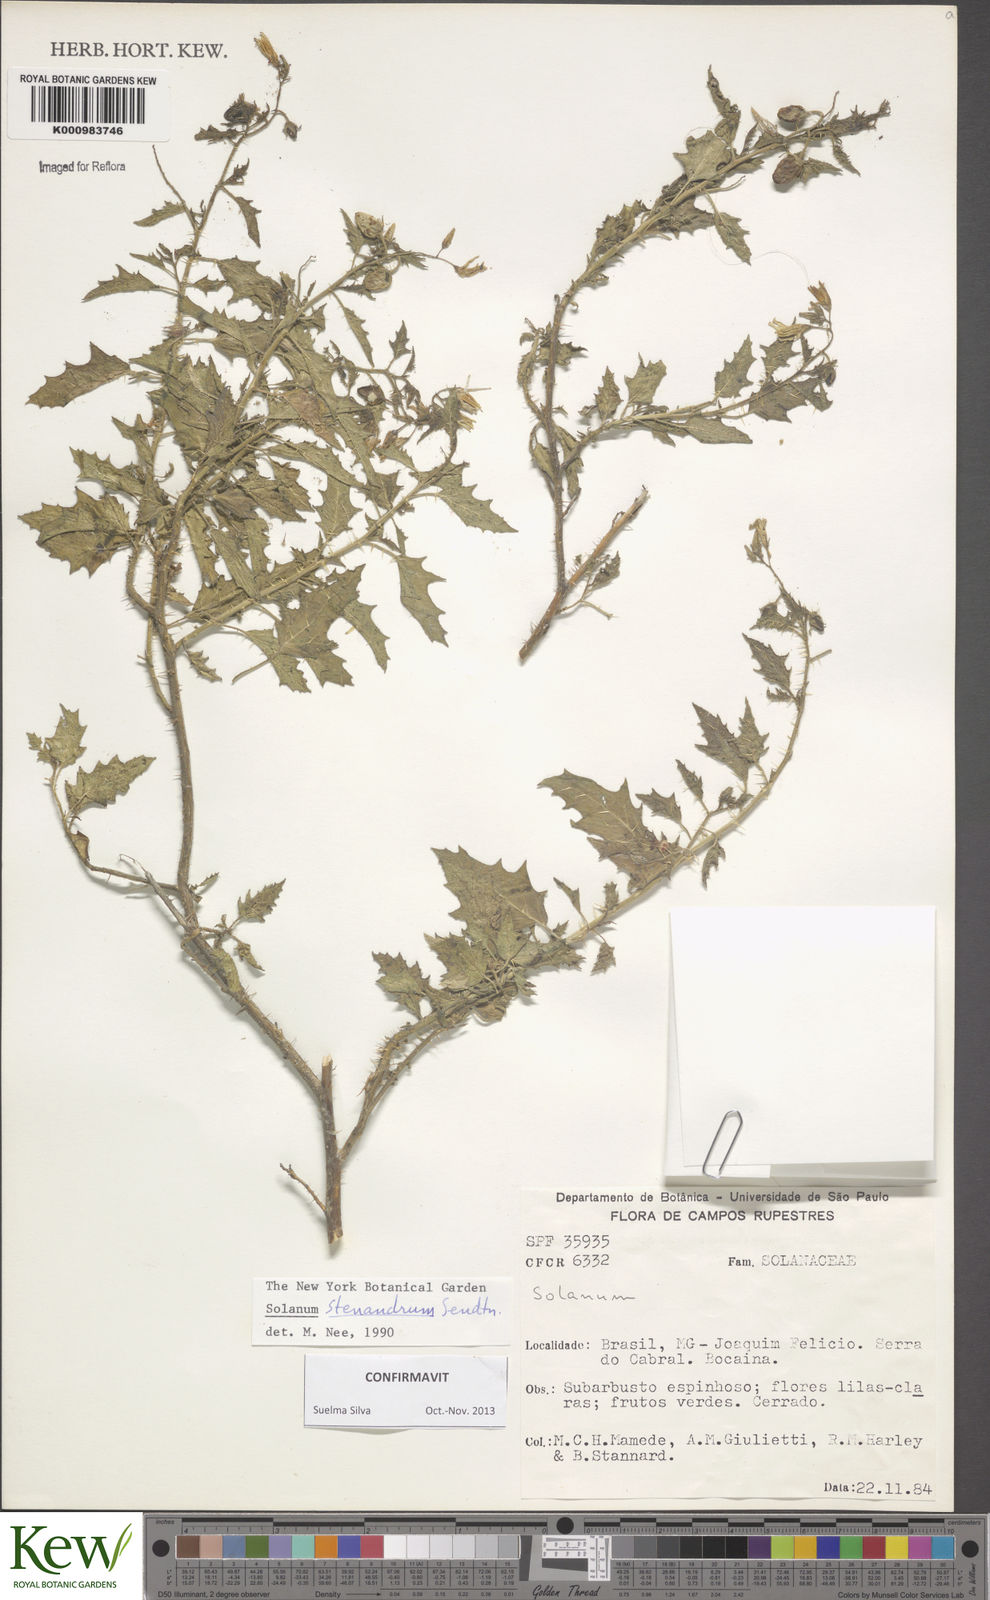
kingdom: Plantae
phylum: Tracheophyta
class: Magnoliopsida
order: Solanales
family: Solanaceae
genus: Solanum
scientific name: Solanum stenandrum
